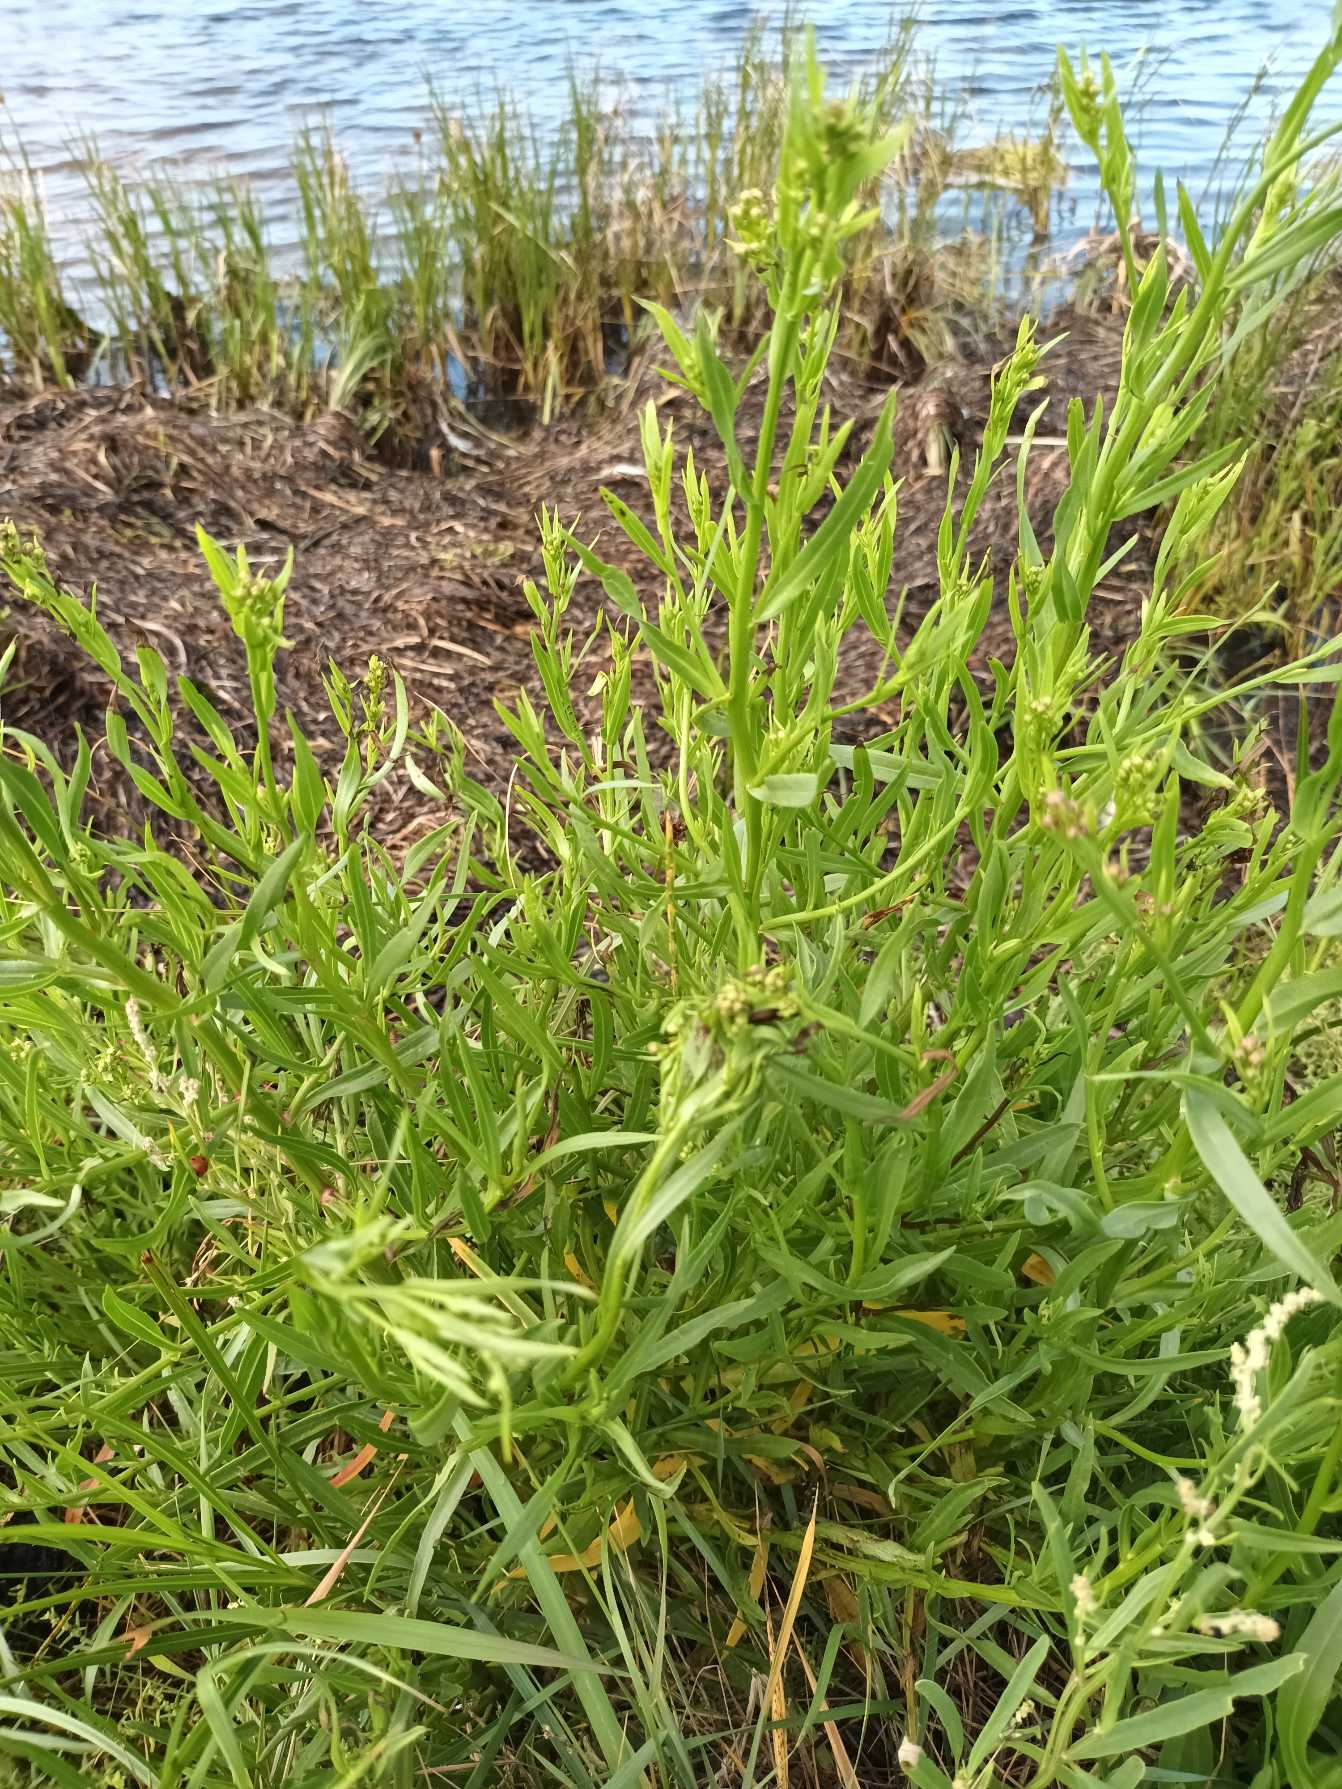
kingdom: Plantae
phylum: Tracheophyta
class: Magnoliopsida
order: Asterales
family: Asteraceae
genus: Tripolium
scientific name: Tripolium pannonicum
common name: Strandasters
